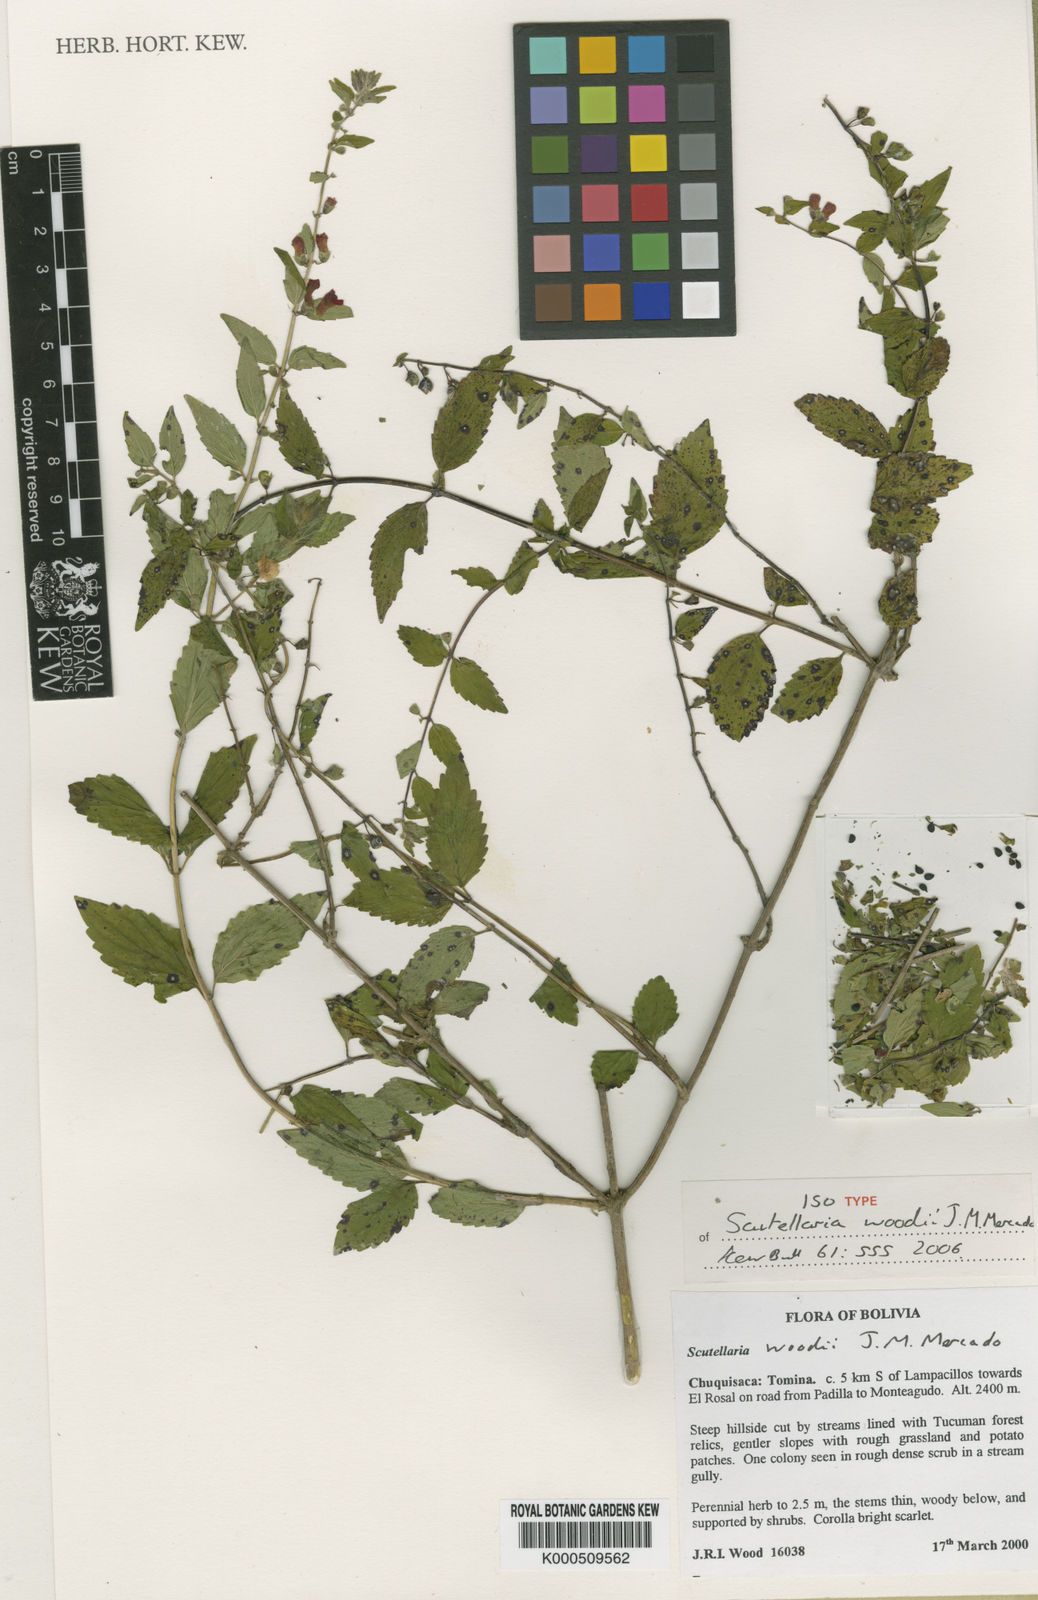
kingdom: Plantae
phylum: Tracheophyta
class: Magnoliopsida
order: Lamiales
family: Lamiaceae
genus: Scutellaria
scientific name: Scutellaria woodii
